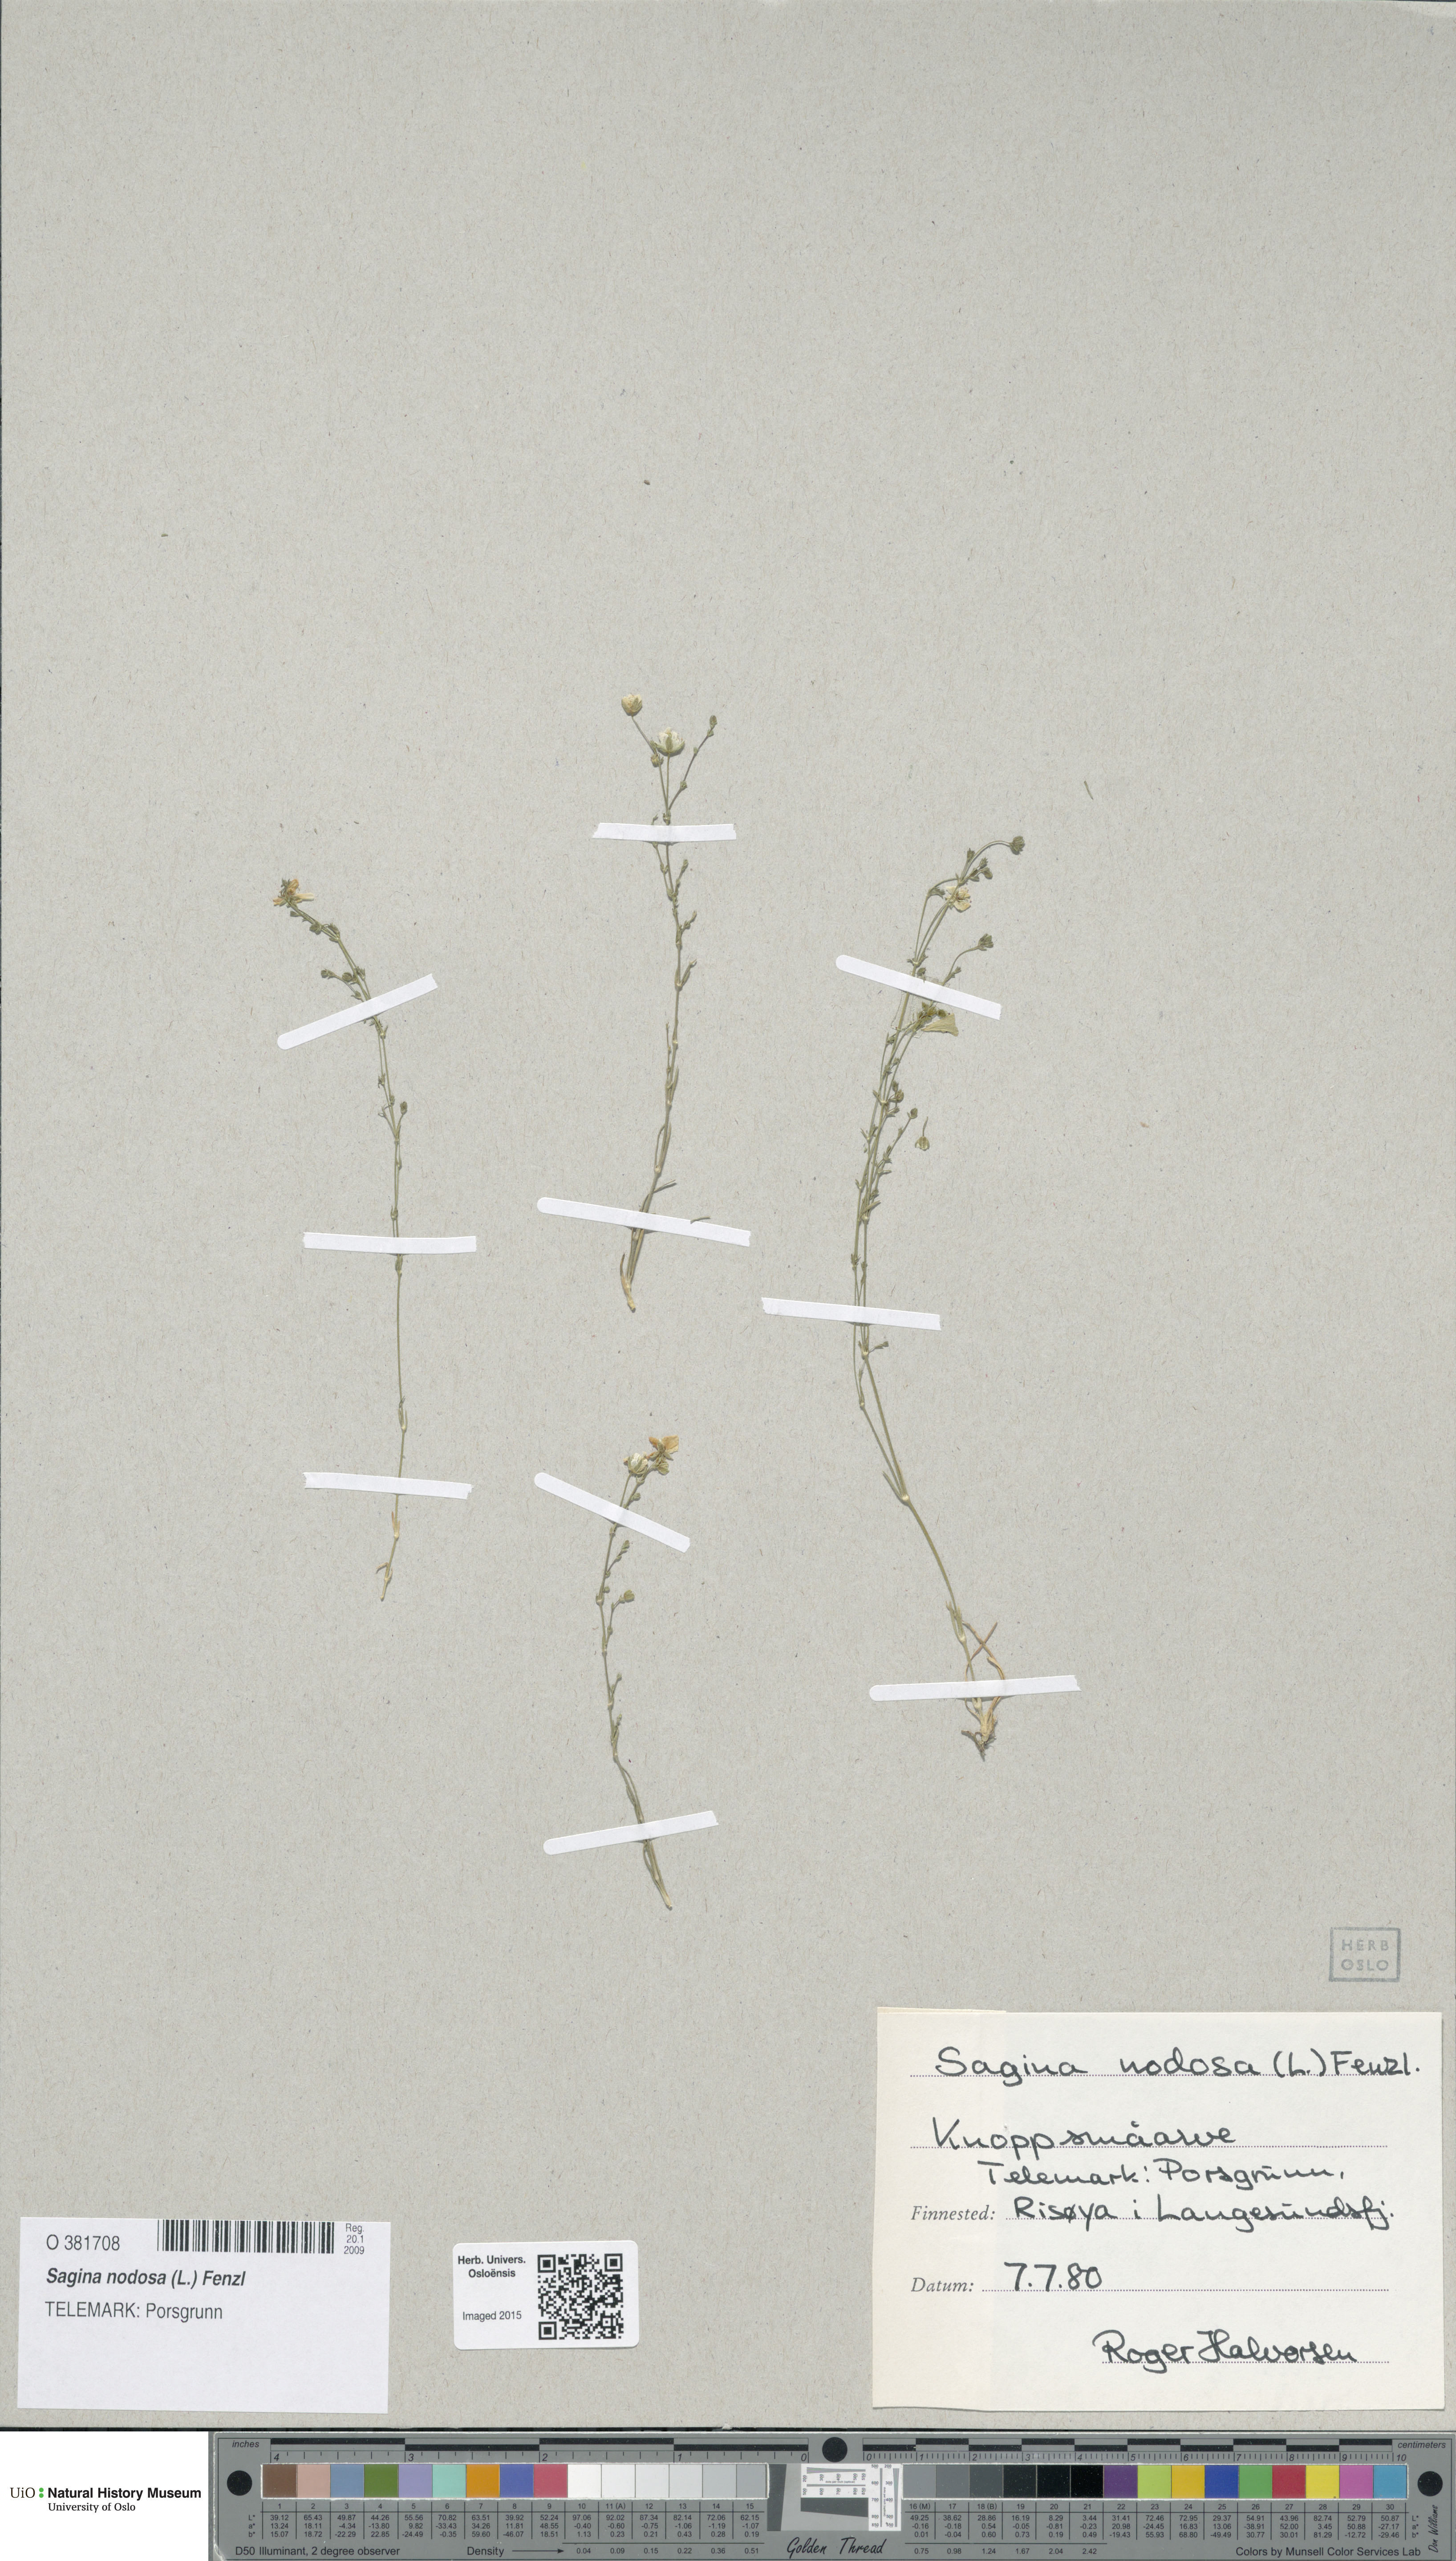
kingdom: Plantae
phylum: Tracheophyta
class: Magnoliopsida
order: Caryophyllales
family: Caryophyllaceae
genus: Sagina
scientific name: Sagina nodosa
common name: Knotted pearlwort
